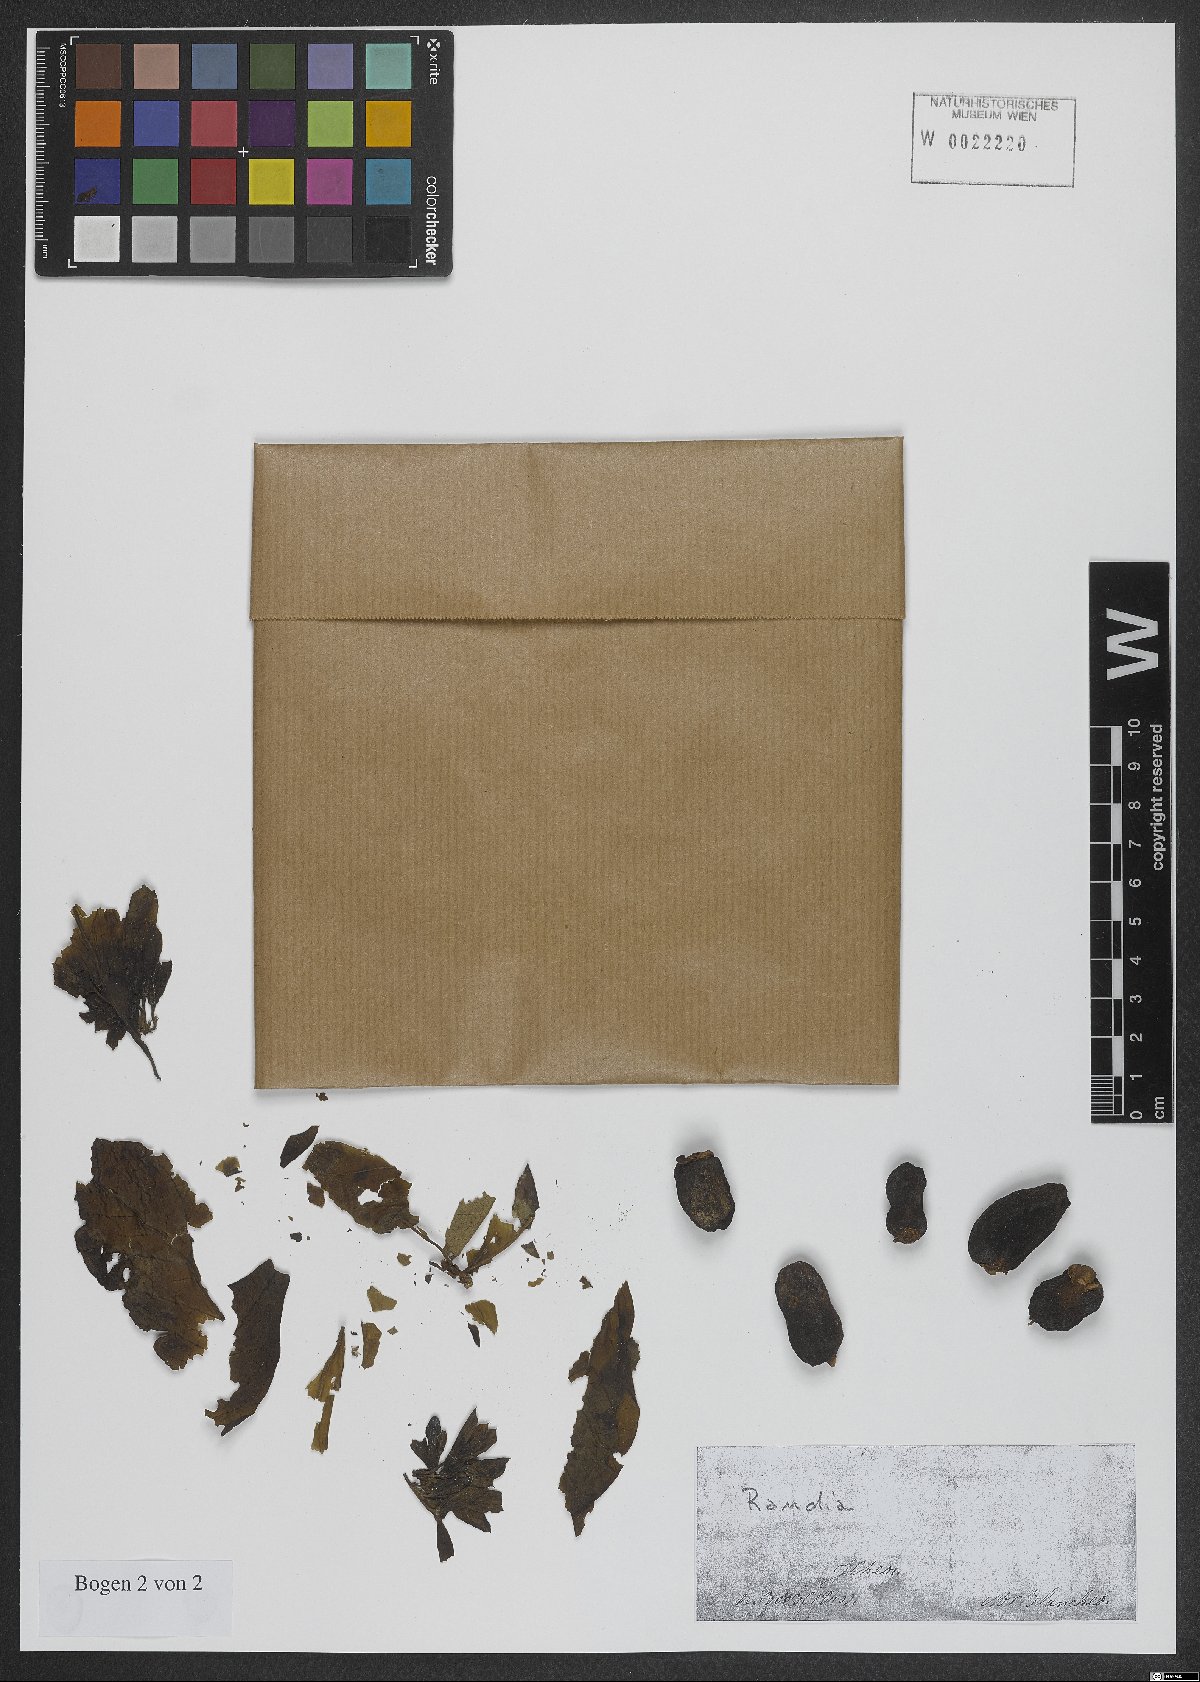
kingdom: Plantae
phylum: Tracheophyta
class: Magnoliopsida
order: Gentianales
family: Rubiaceae
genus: Randia
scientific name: Randia
